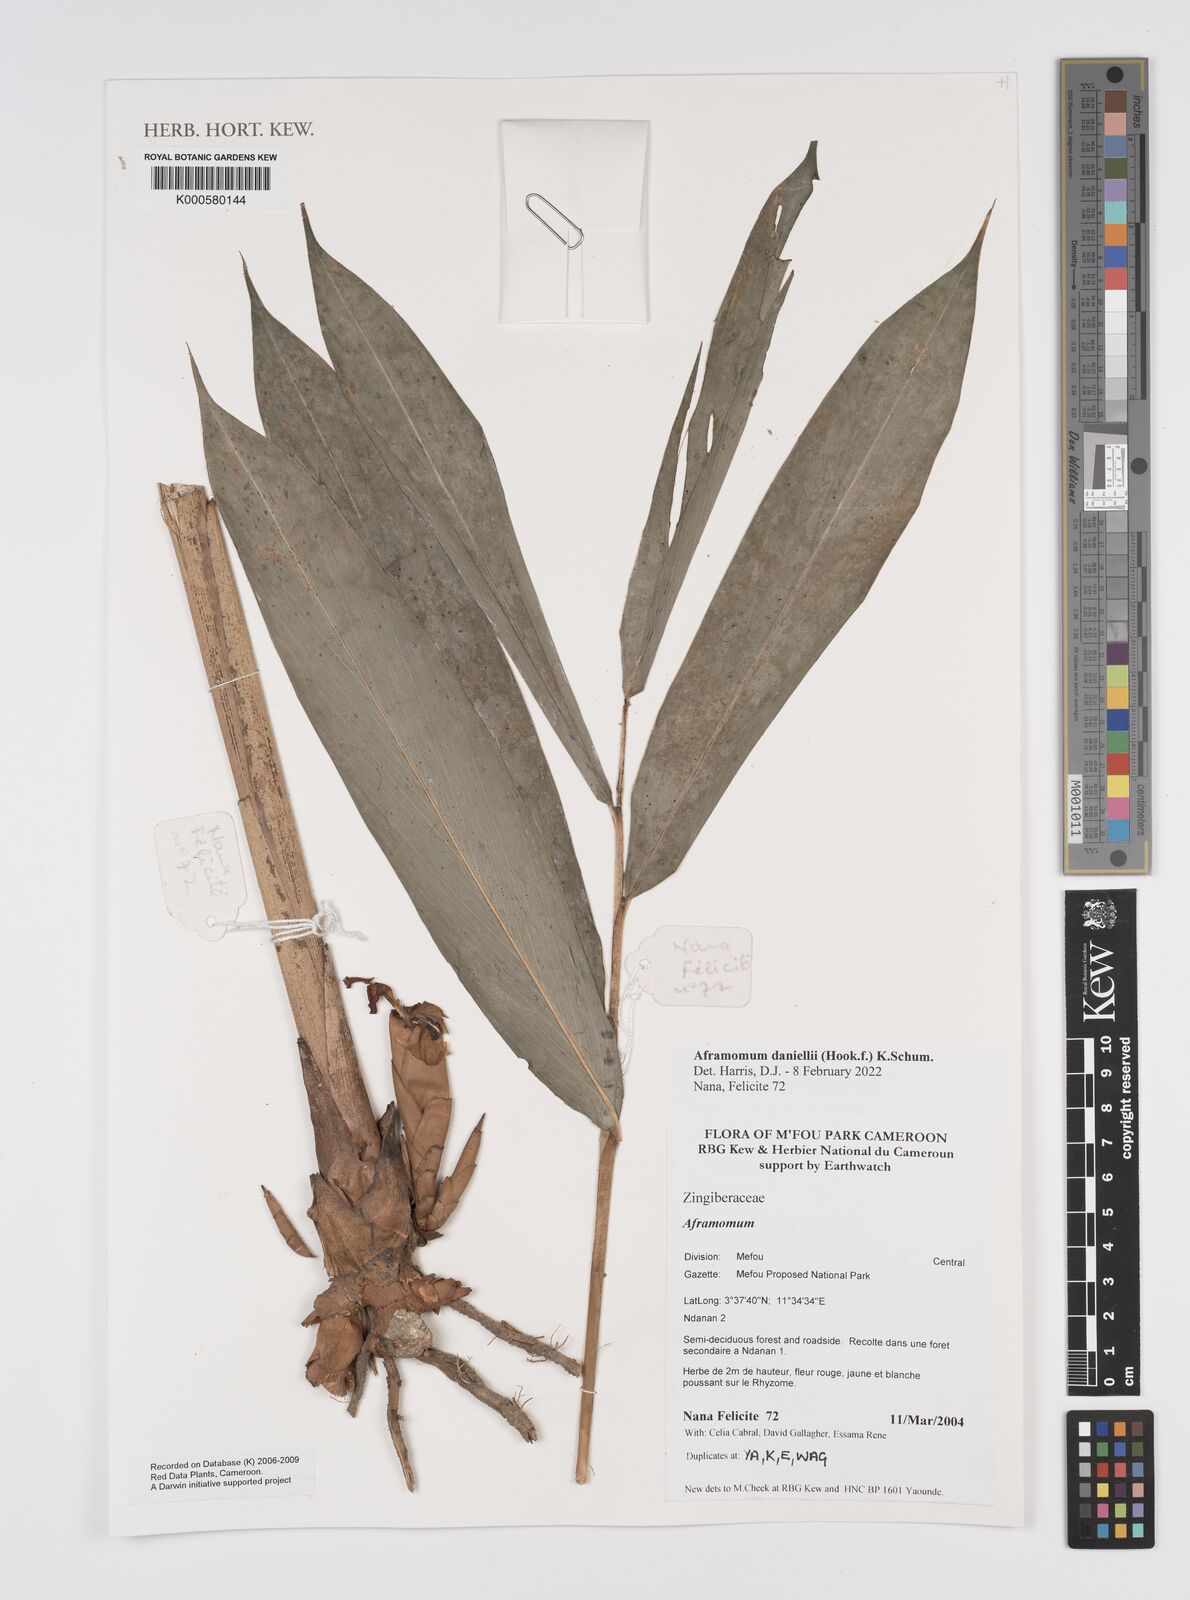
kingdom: Plantae
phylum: Tracheophyta
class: Liliopsida
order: Zingiberales
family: Zingiberaceae
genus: Aframomum
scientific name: Aframomum
